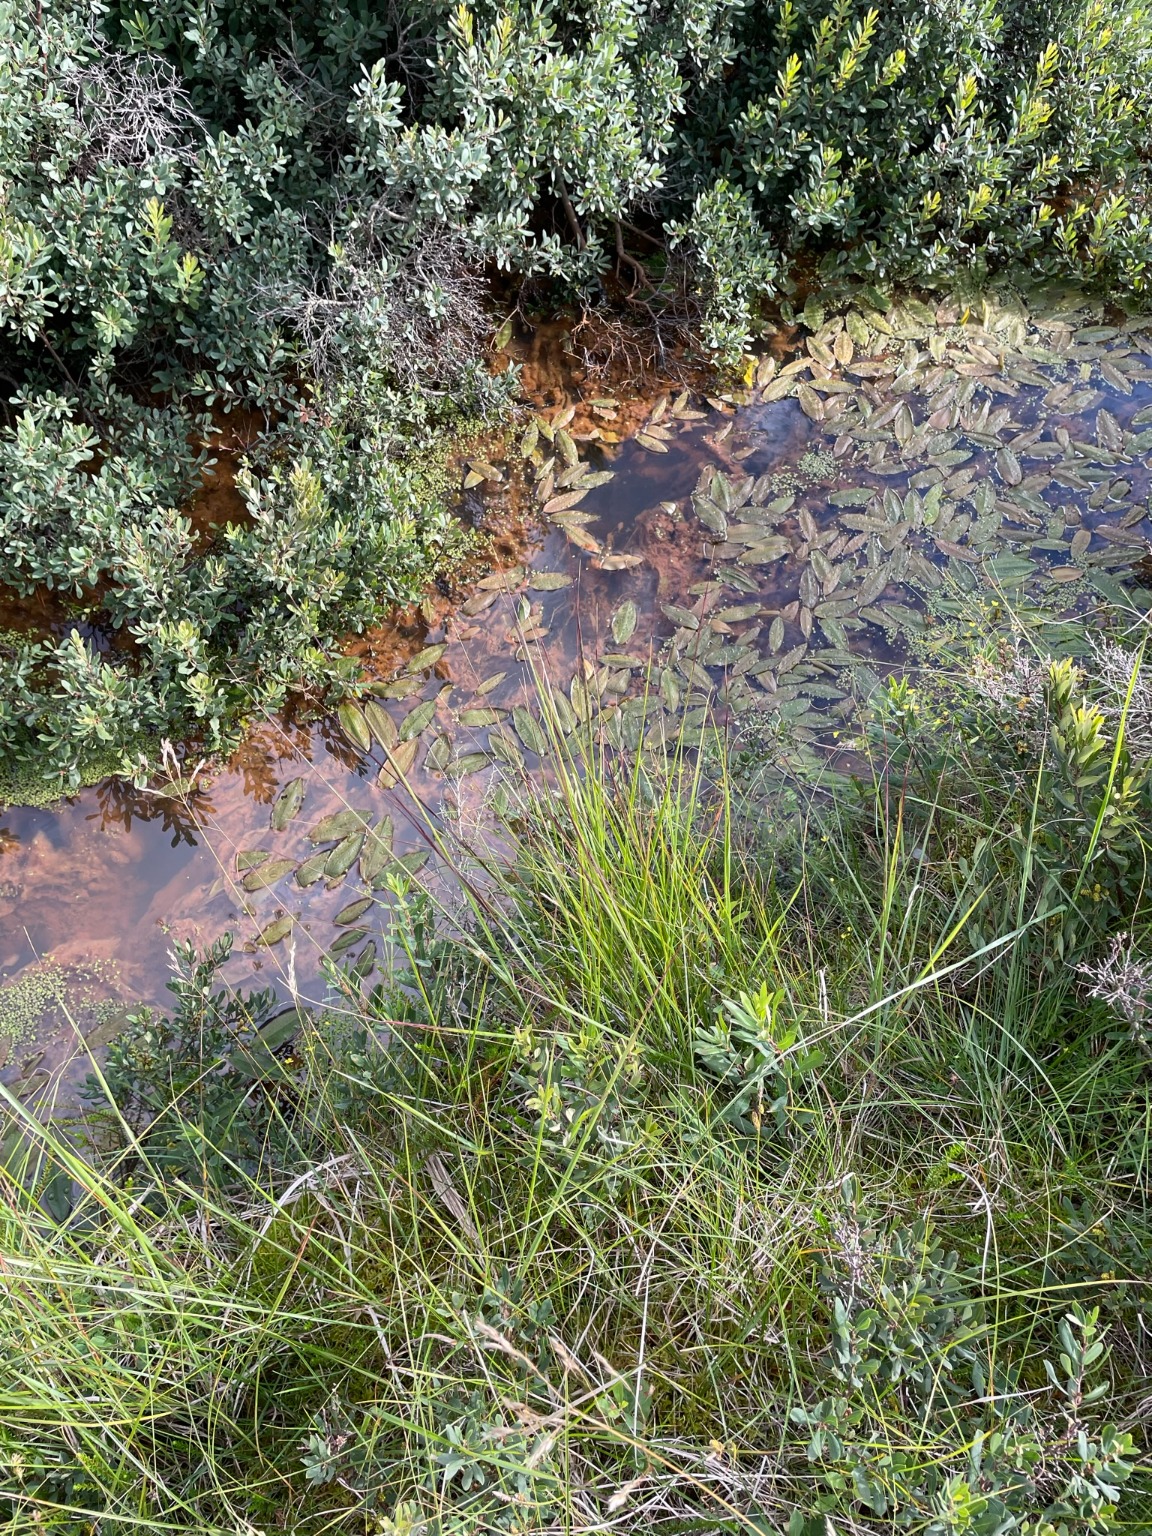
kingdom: Plantae
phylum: Tracheophyta
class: Liliopsida
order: Alismatales
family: Potamogetonaceae
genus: Potamogeton
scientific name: Potamogeton polygonifolius
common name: Aflangbladet vandaks
